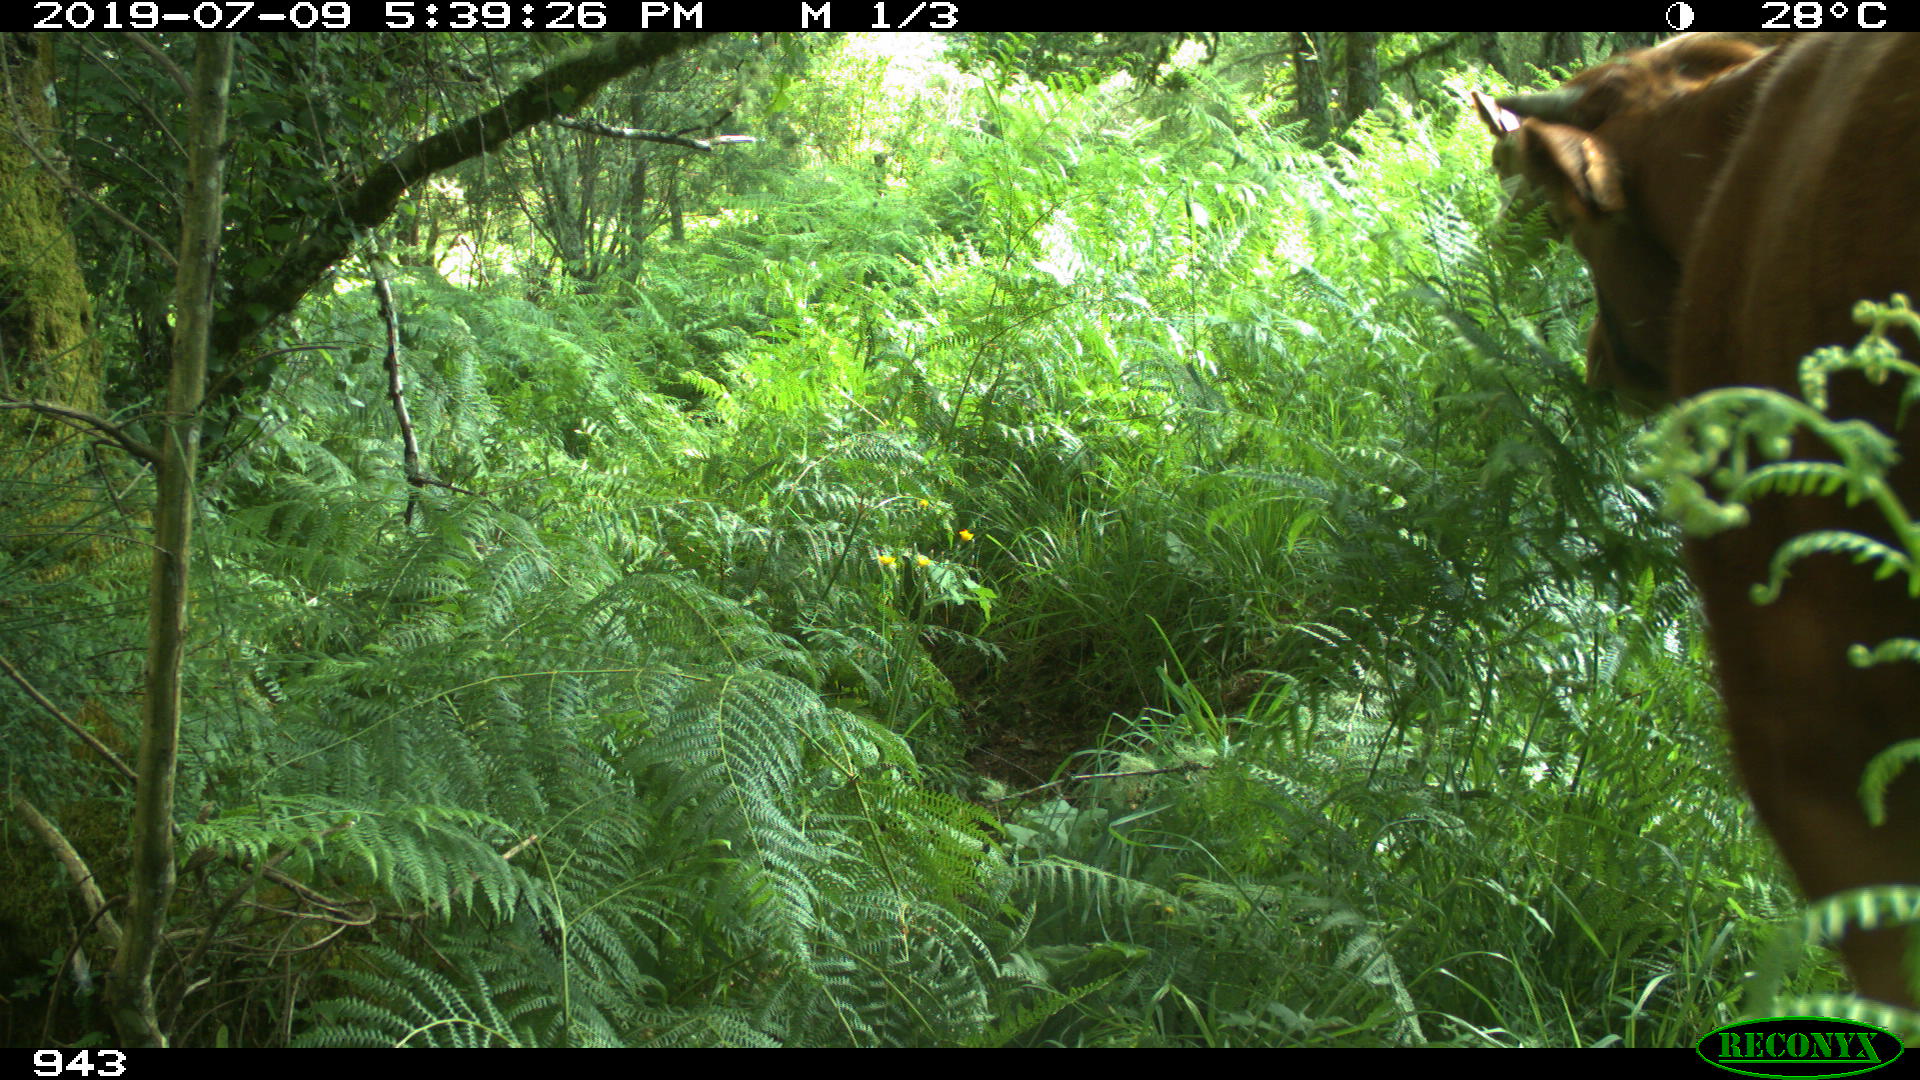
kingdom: Animalia
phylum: Chordata
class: Mammalia
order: Artiodactyla
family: Bovidae
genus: Bos
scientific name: Bos taurus
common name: Domesticated cattle
